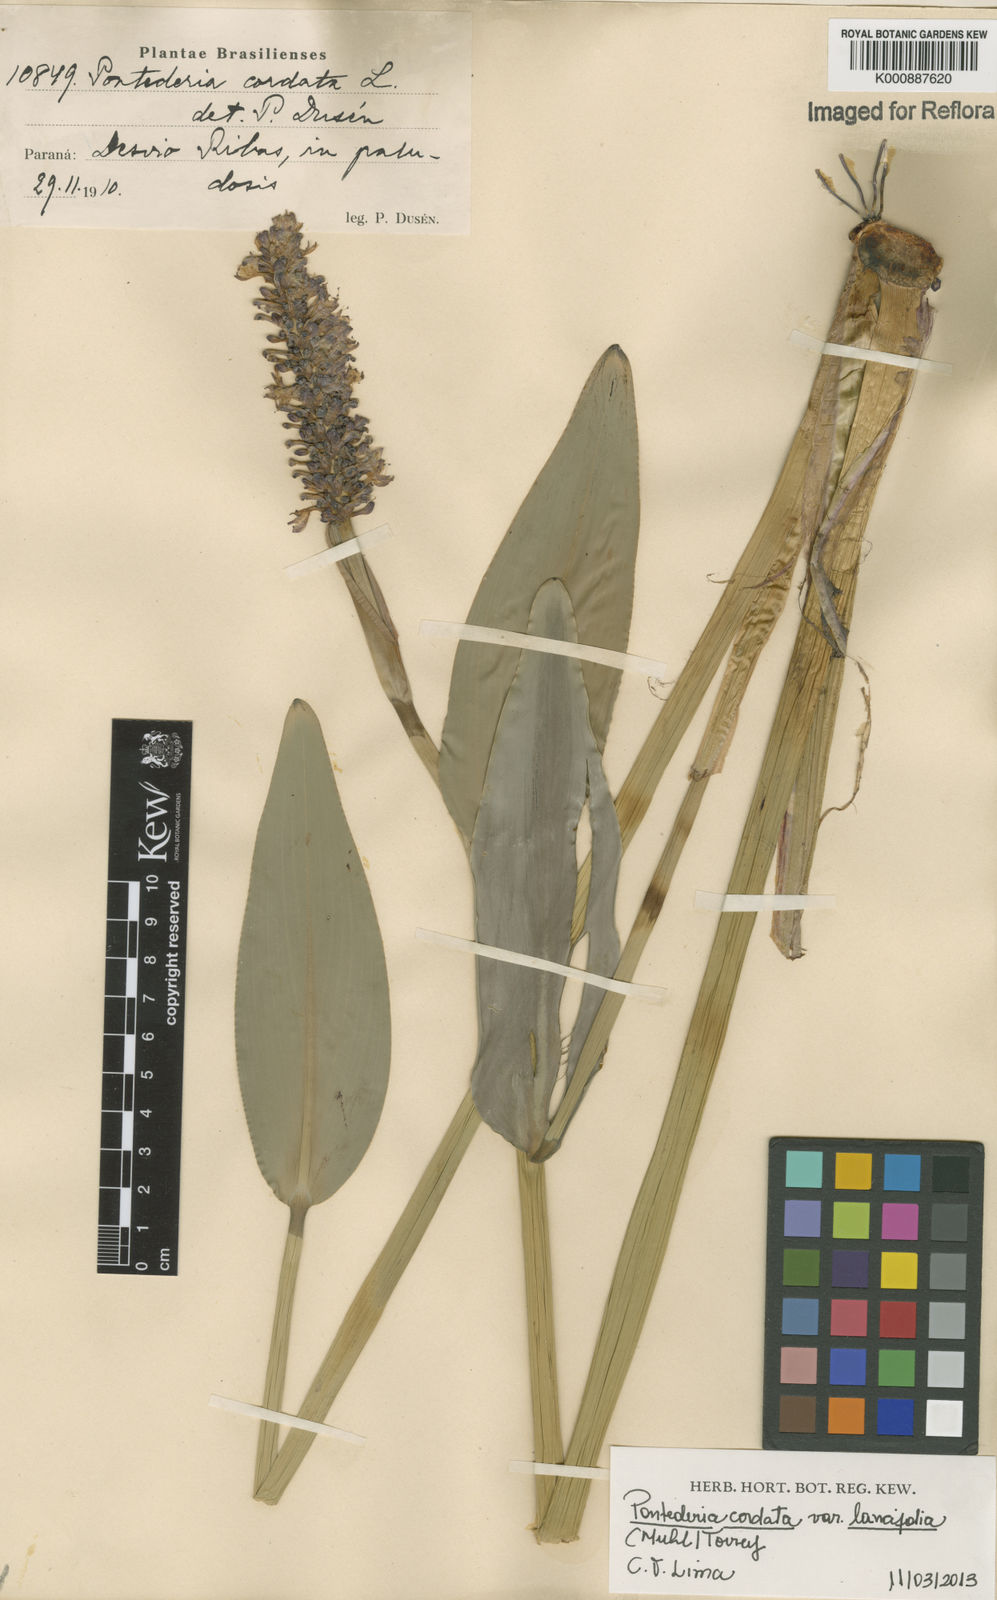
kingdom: Plantae
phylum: Tracheophyta
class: Liliopsida
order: Commelinales
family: Pontederiaceae
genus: Pontederia
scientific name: Pontederia cordata
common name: Pickerelweed
